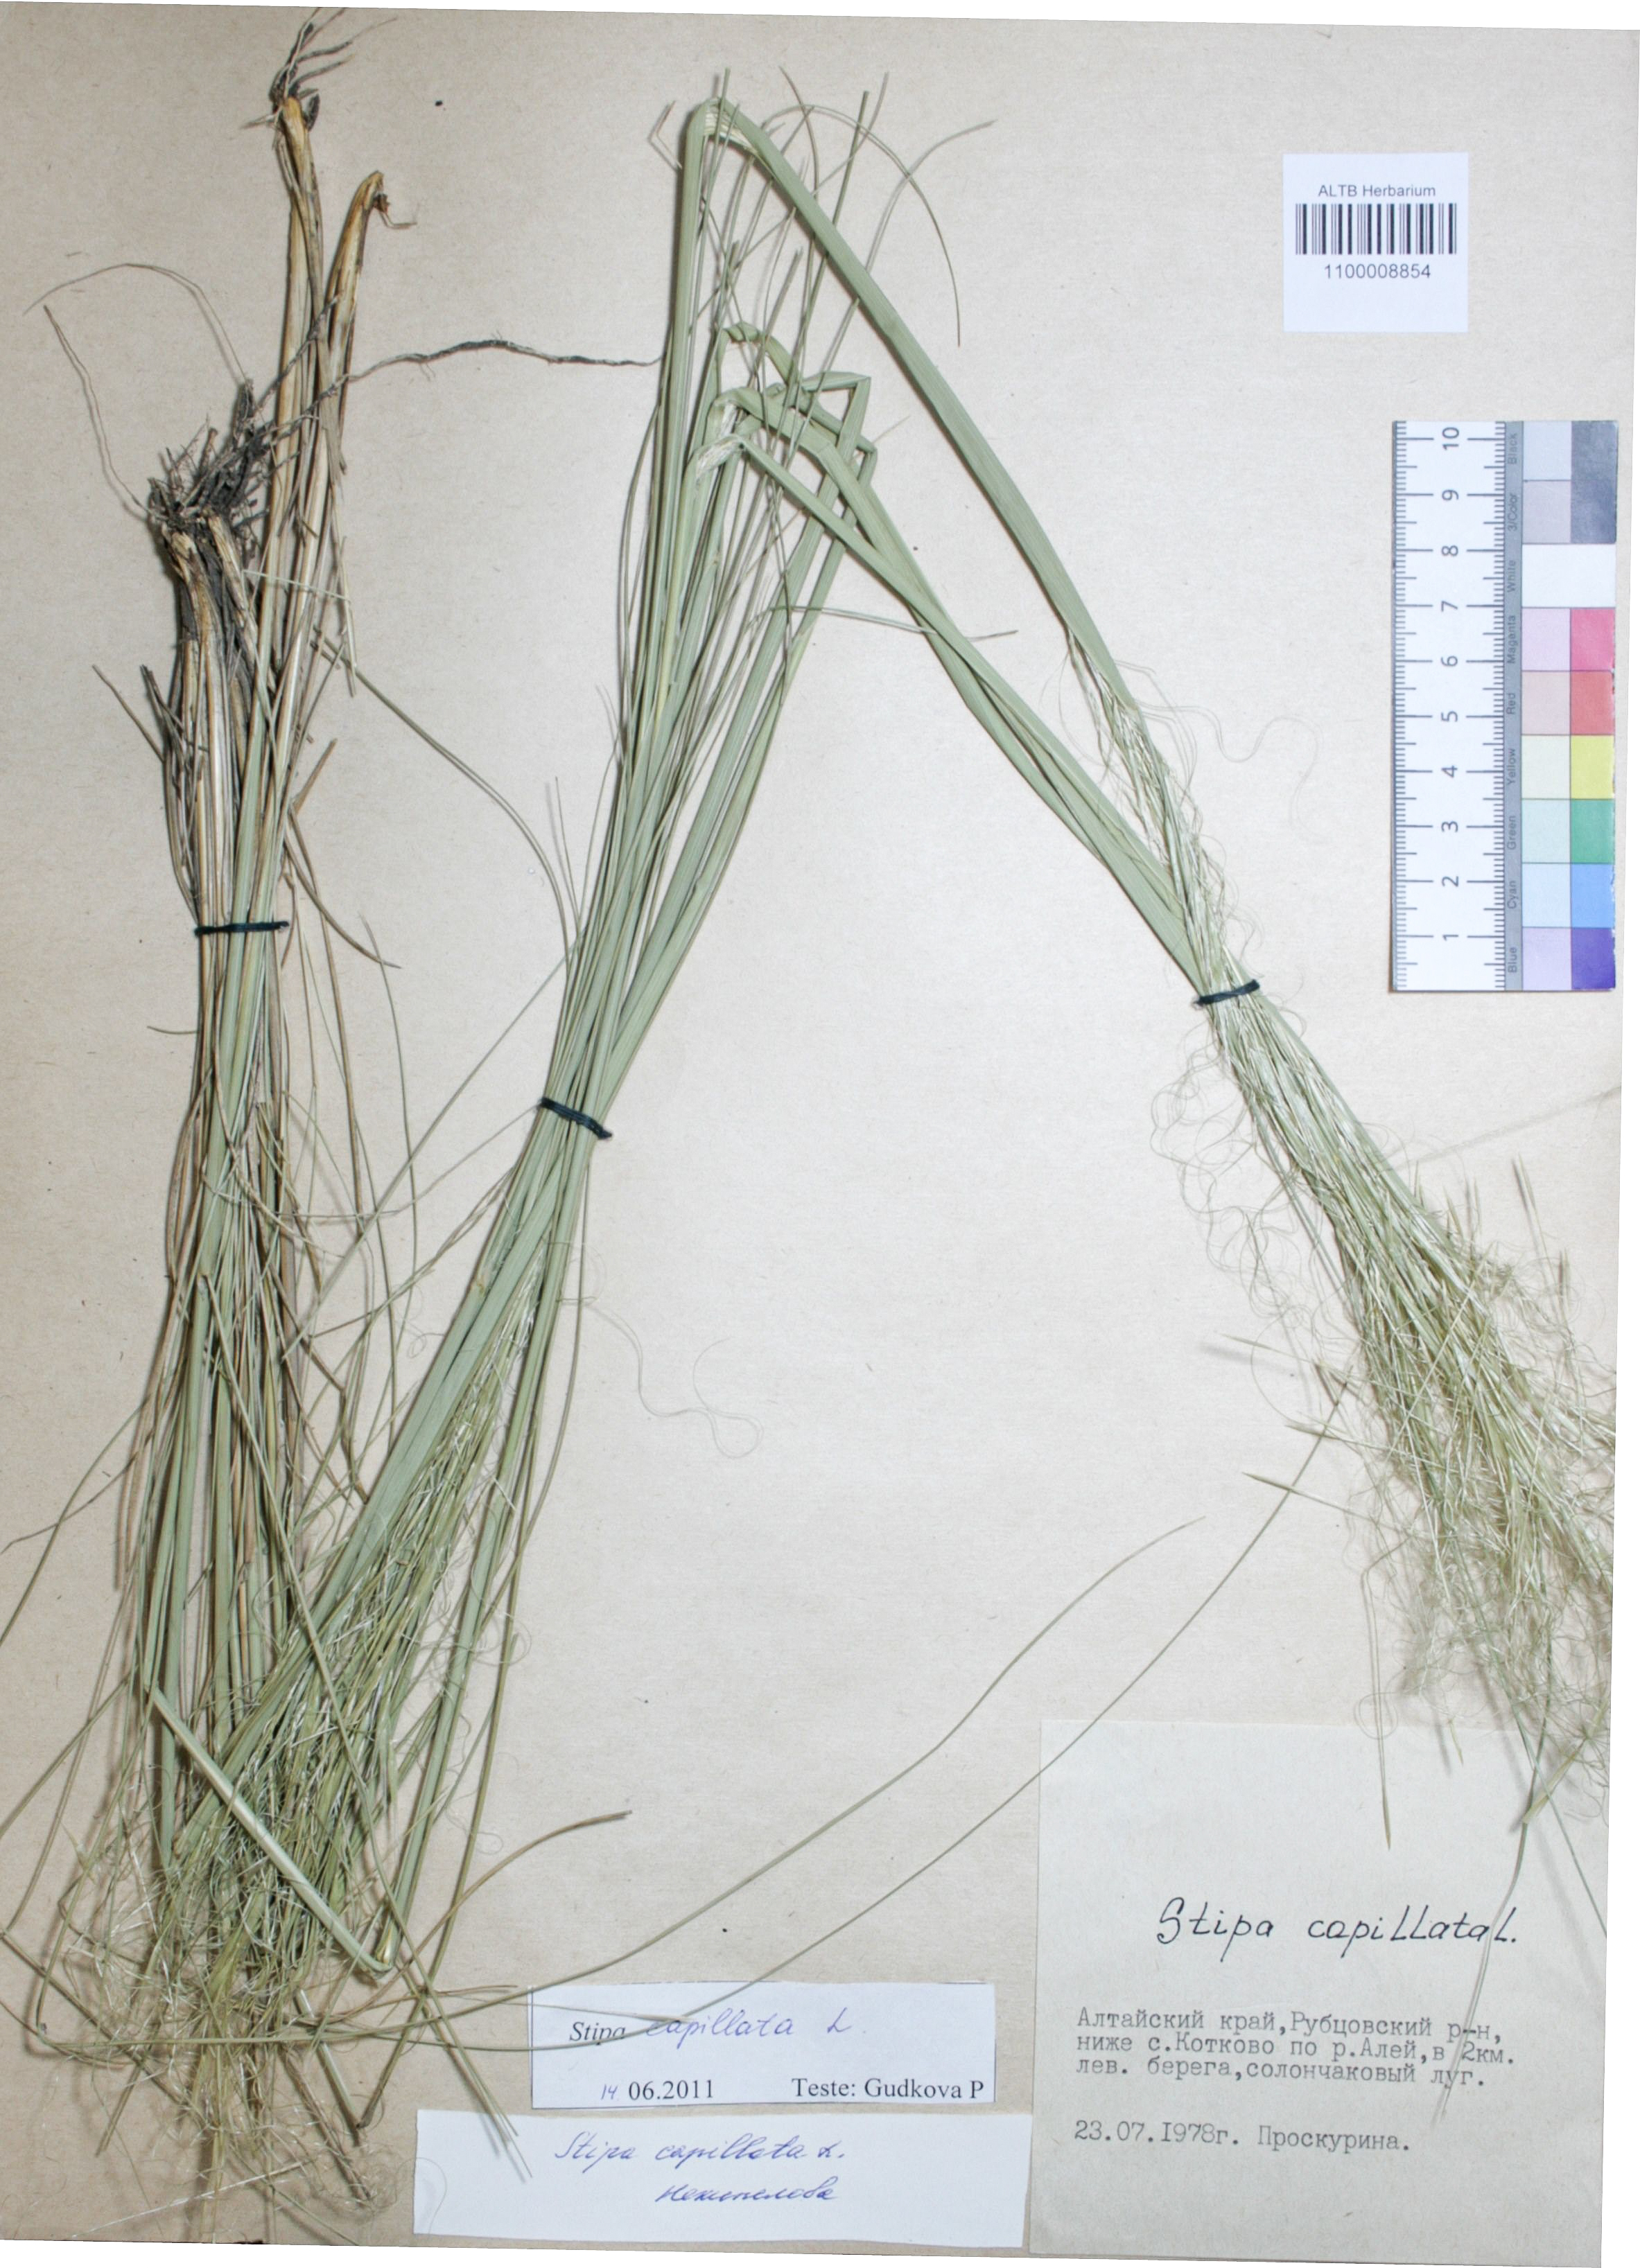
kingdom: Plantae
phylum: Tracheophyta
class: Liliopsida
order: Poales
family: Poaceae
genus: Stipa
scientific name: Stipa capillata
